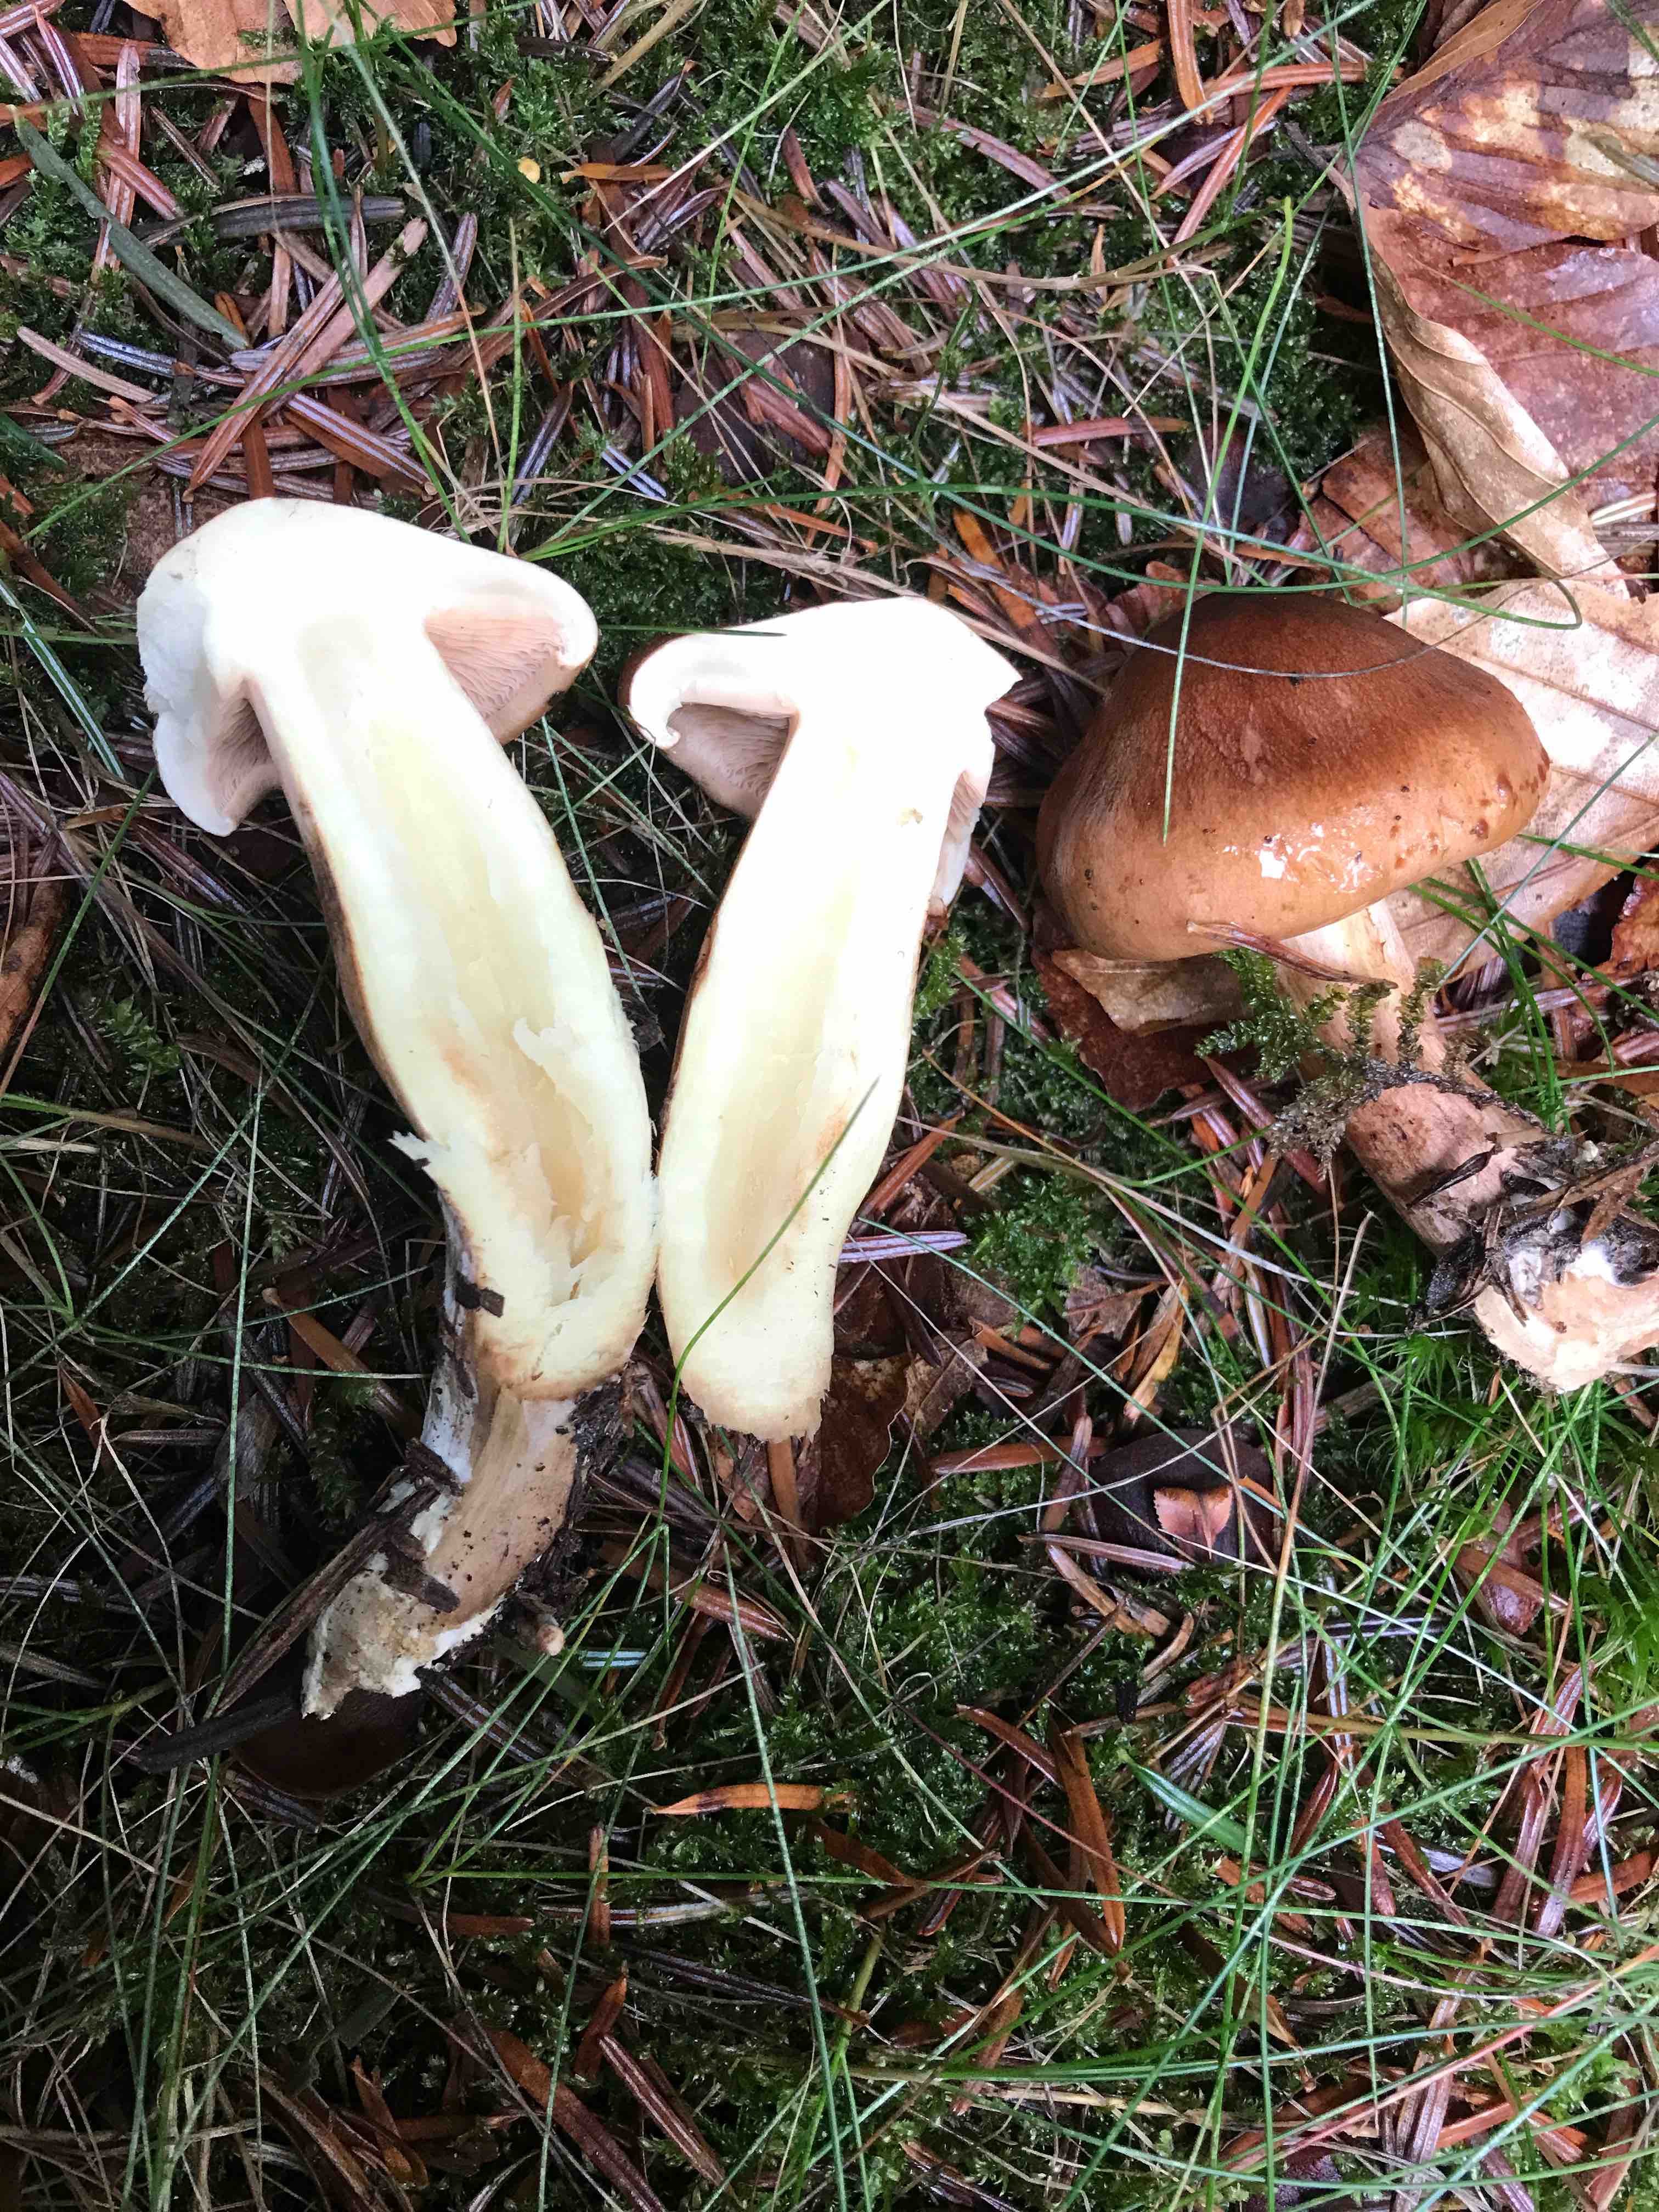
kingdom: Fungi
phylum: Basidiomycota
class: Agaricomycetes
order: Agaricales
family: Tricholomataceae
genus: Tricholoma
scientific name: Tricholoma fulvum
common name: birke-ridderhat
